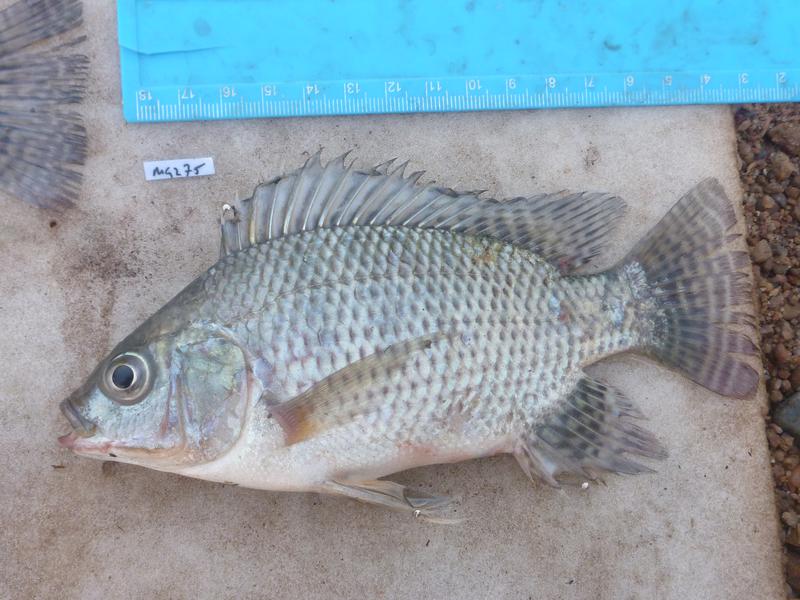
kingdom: Animalia
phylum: Chordata
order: Perciformes
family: Cichlidae
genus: Oreochromis
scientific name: Oreochromis niloticus
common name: Nile tilapia
